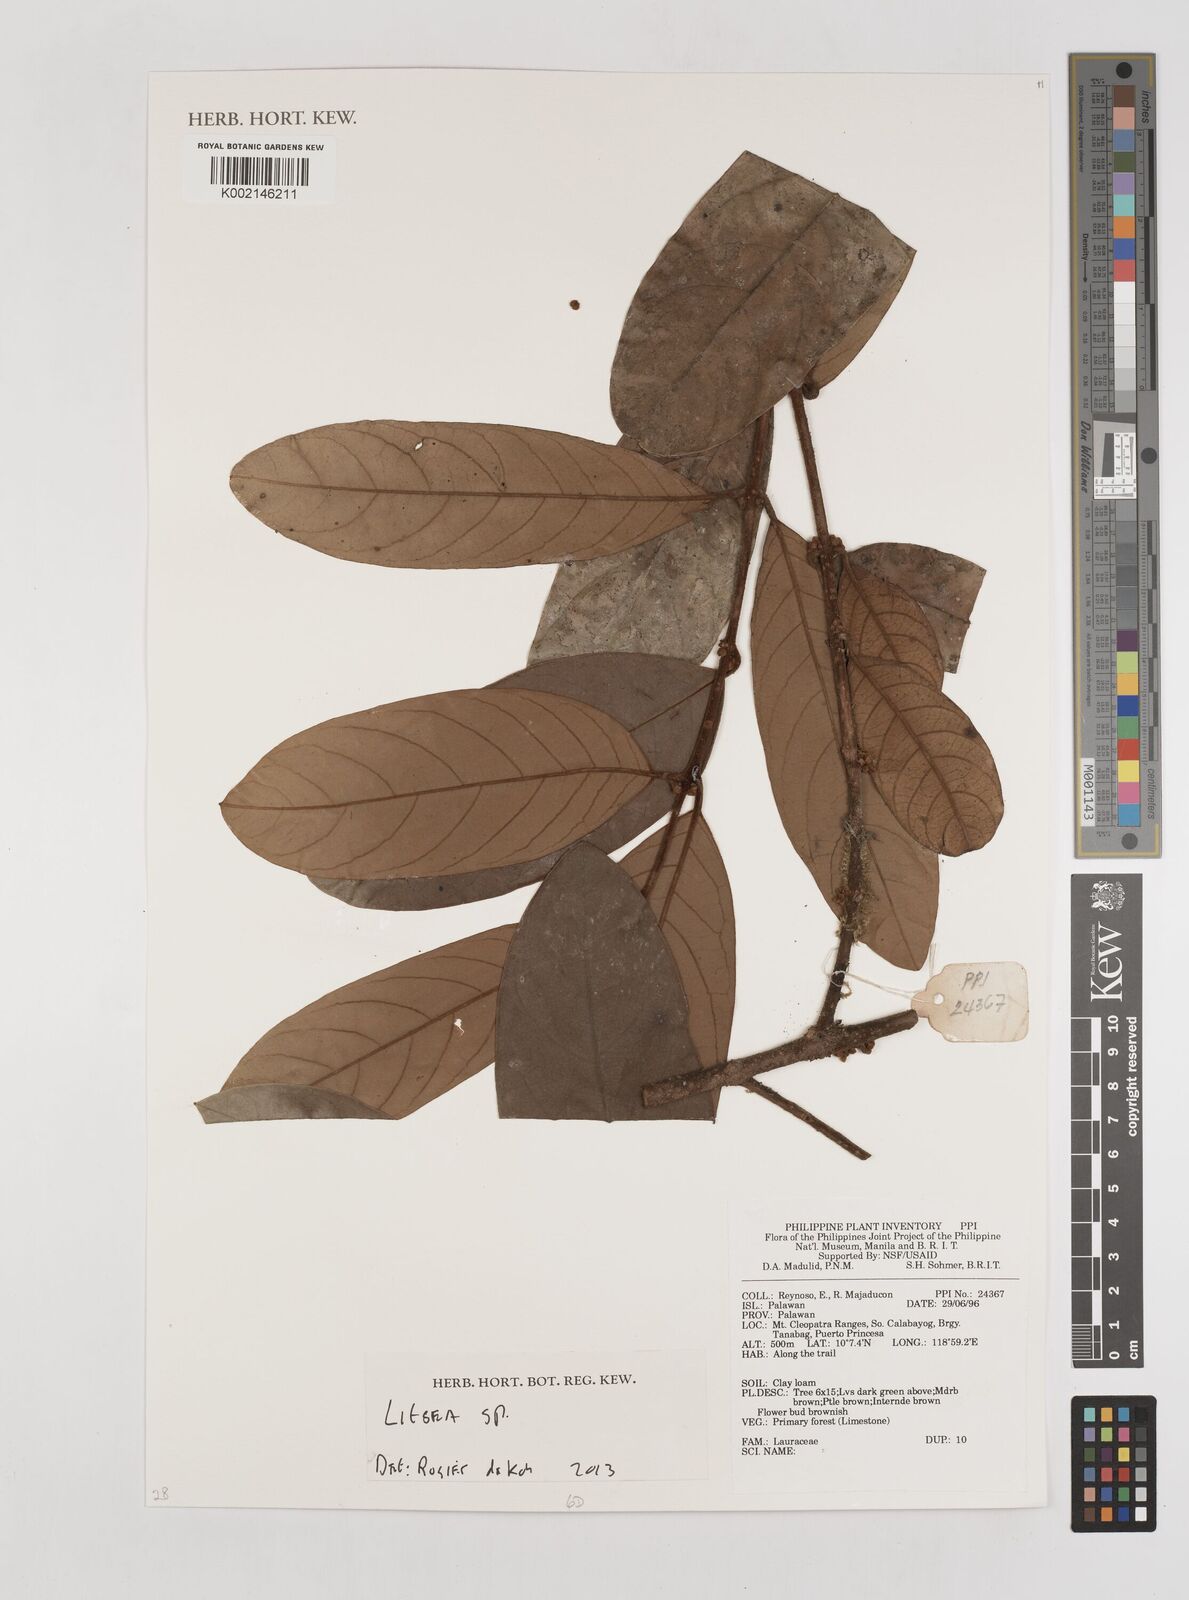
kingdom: Plantae
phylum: Tracheophyta
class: Magnoliopsida
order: Laurales
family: Lauraceae
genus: Litsea
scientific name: Litsea
